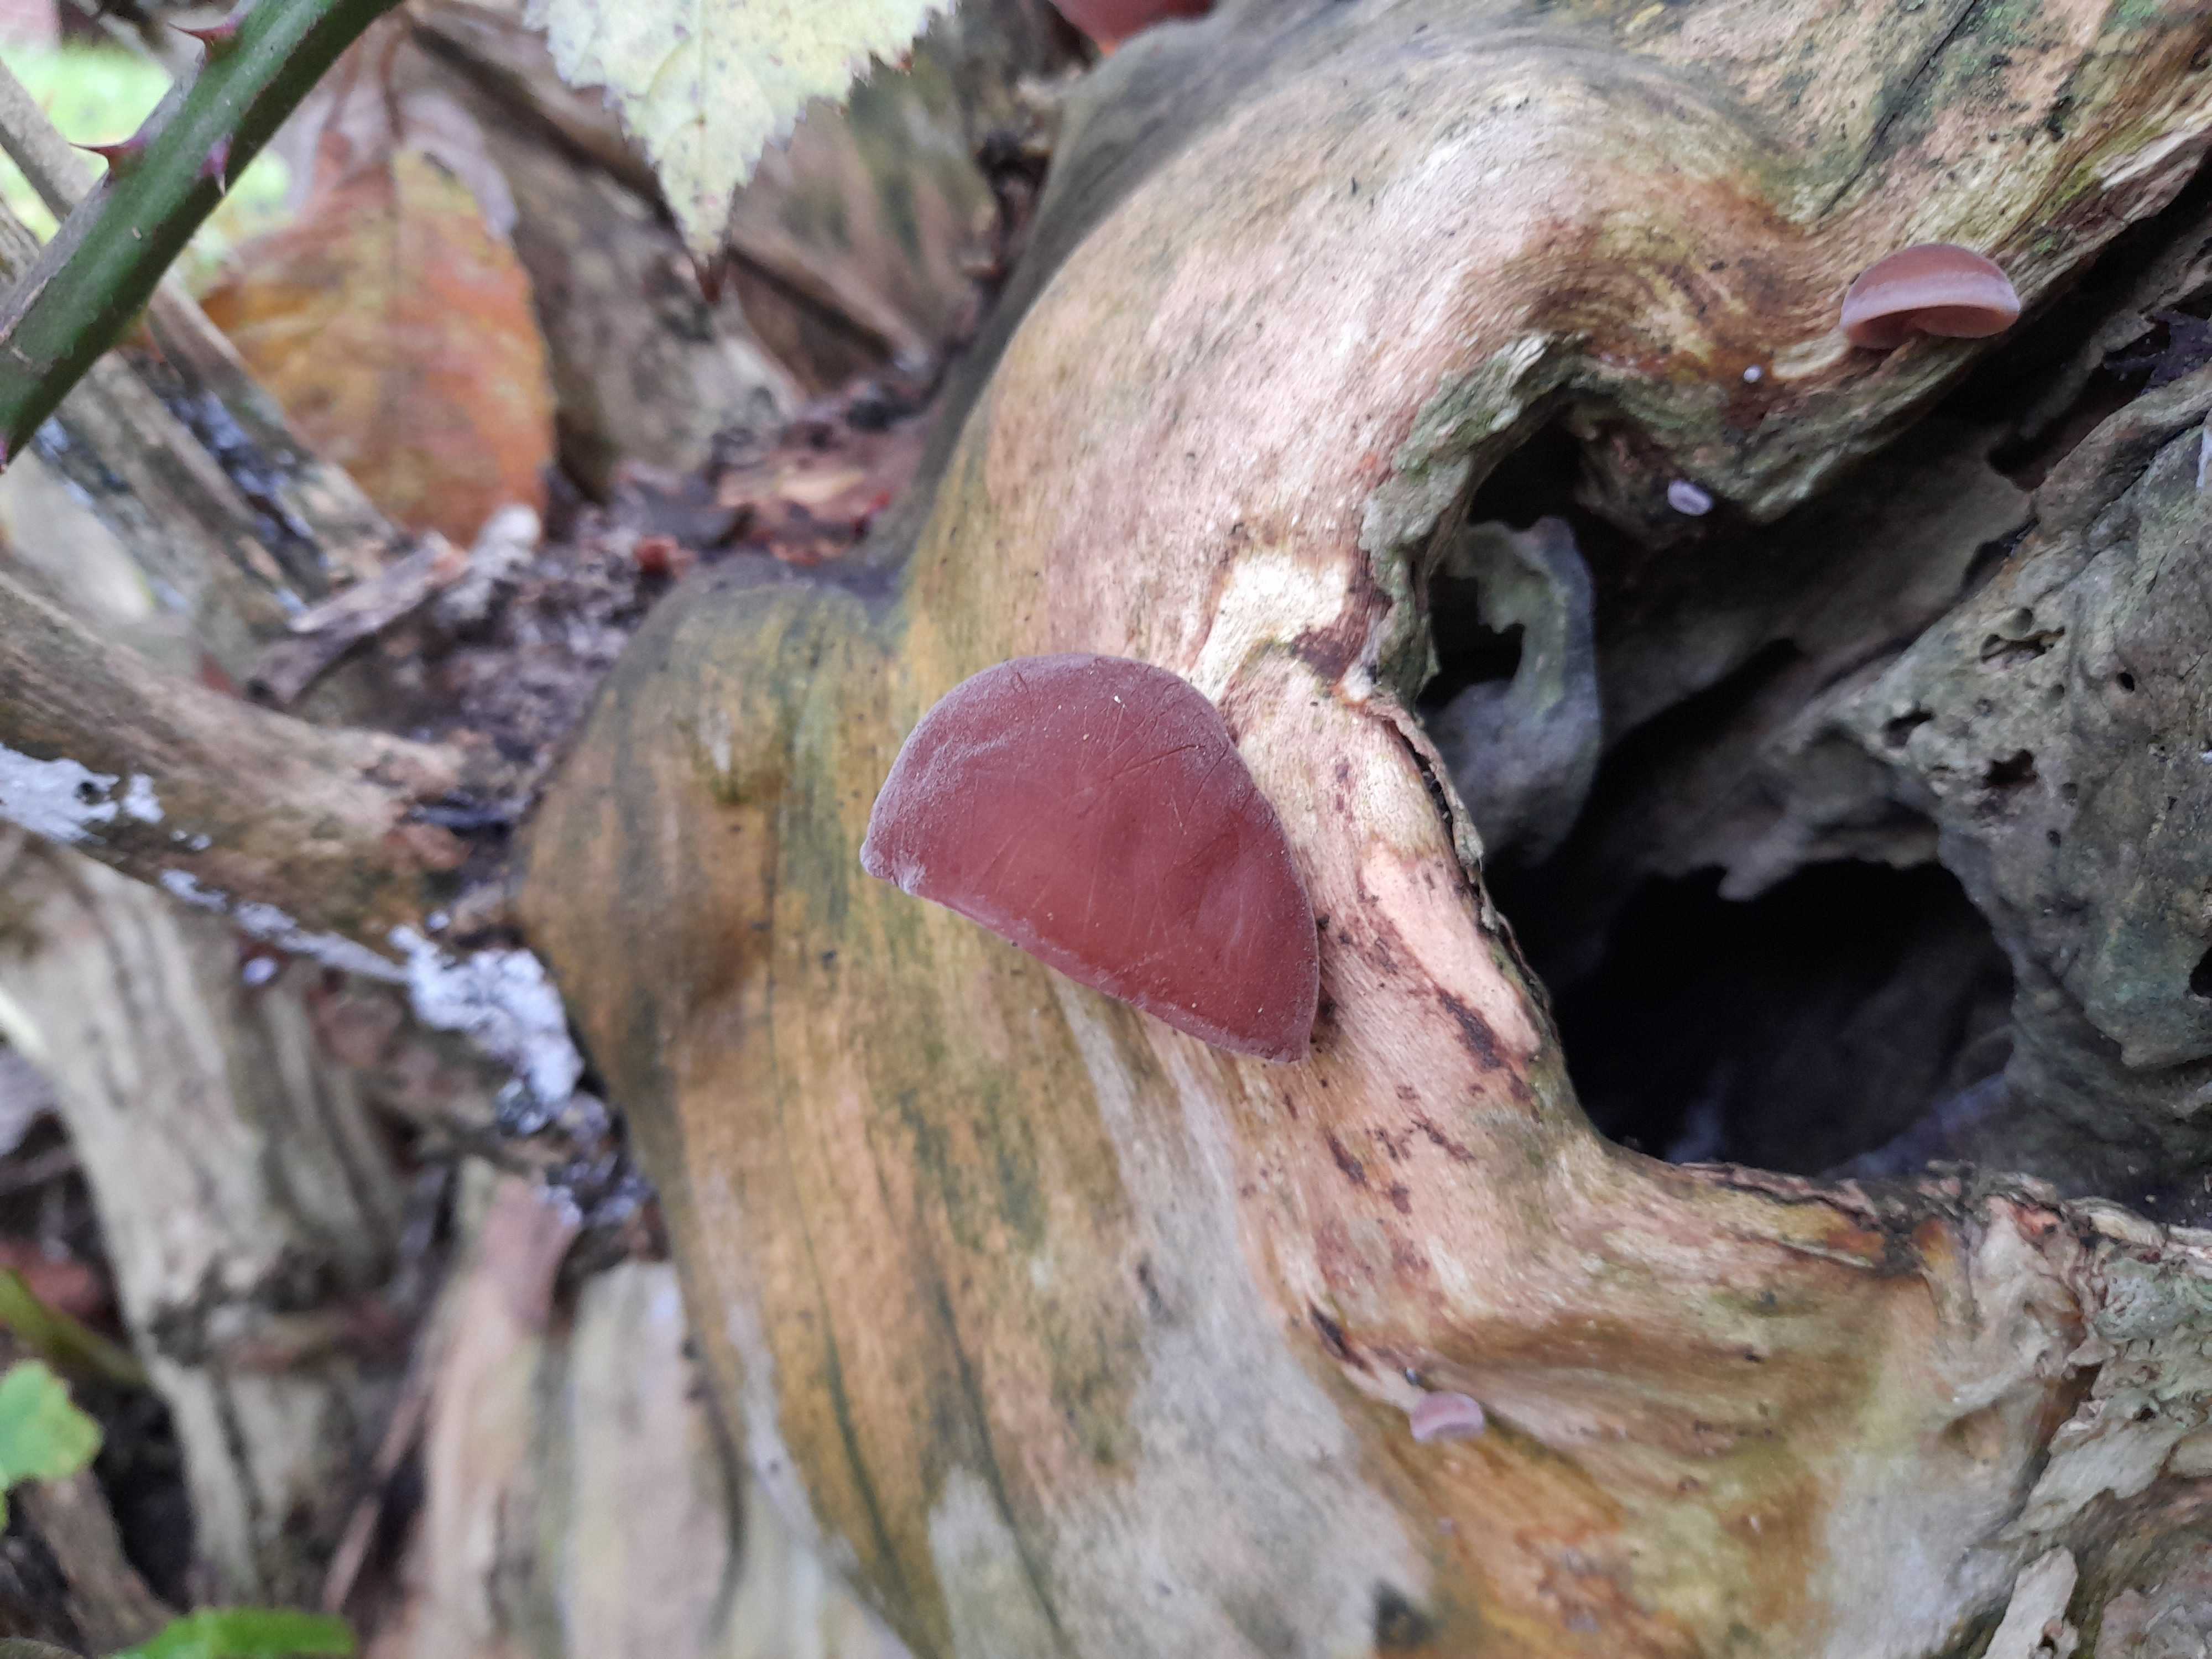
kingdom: Fungi
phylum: Basidiomycota
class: Agaricomycetes
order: Auriculariales
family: Auriculariaceae
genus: Auricularia
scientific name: Auricularia auricula-judae
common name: almindelig judasøre
